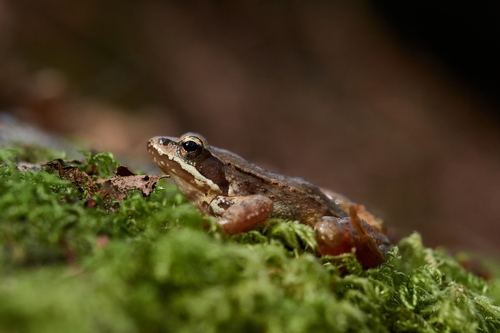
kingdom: Animalia
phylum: Chordata
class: Amphibia
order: Anura
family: Ranidae
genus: Rana
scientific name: Rana iberica
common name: Iberian frog
